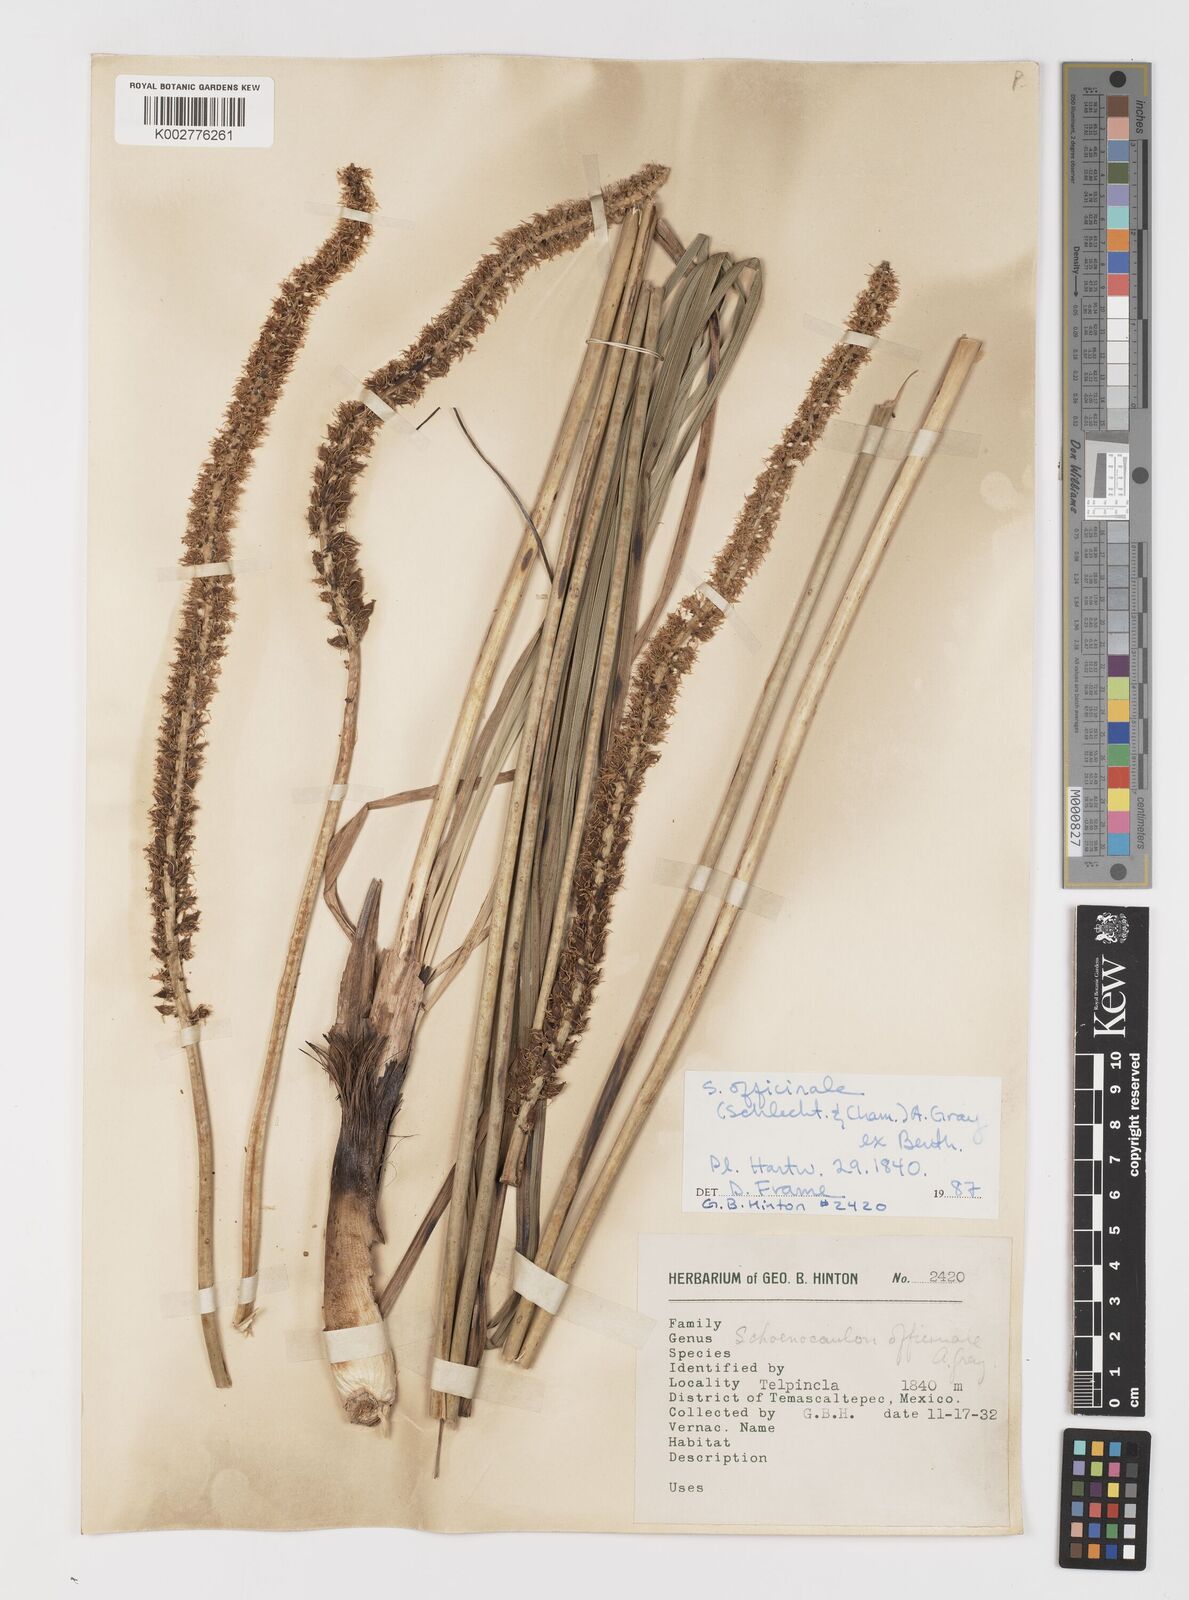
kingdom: Plantae
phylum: Tracheophyta
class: Liliopsida
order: Liliales
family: Melanthiaceae
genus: Schoenocaulon
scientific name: Schoenocaulon officinale
